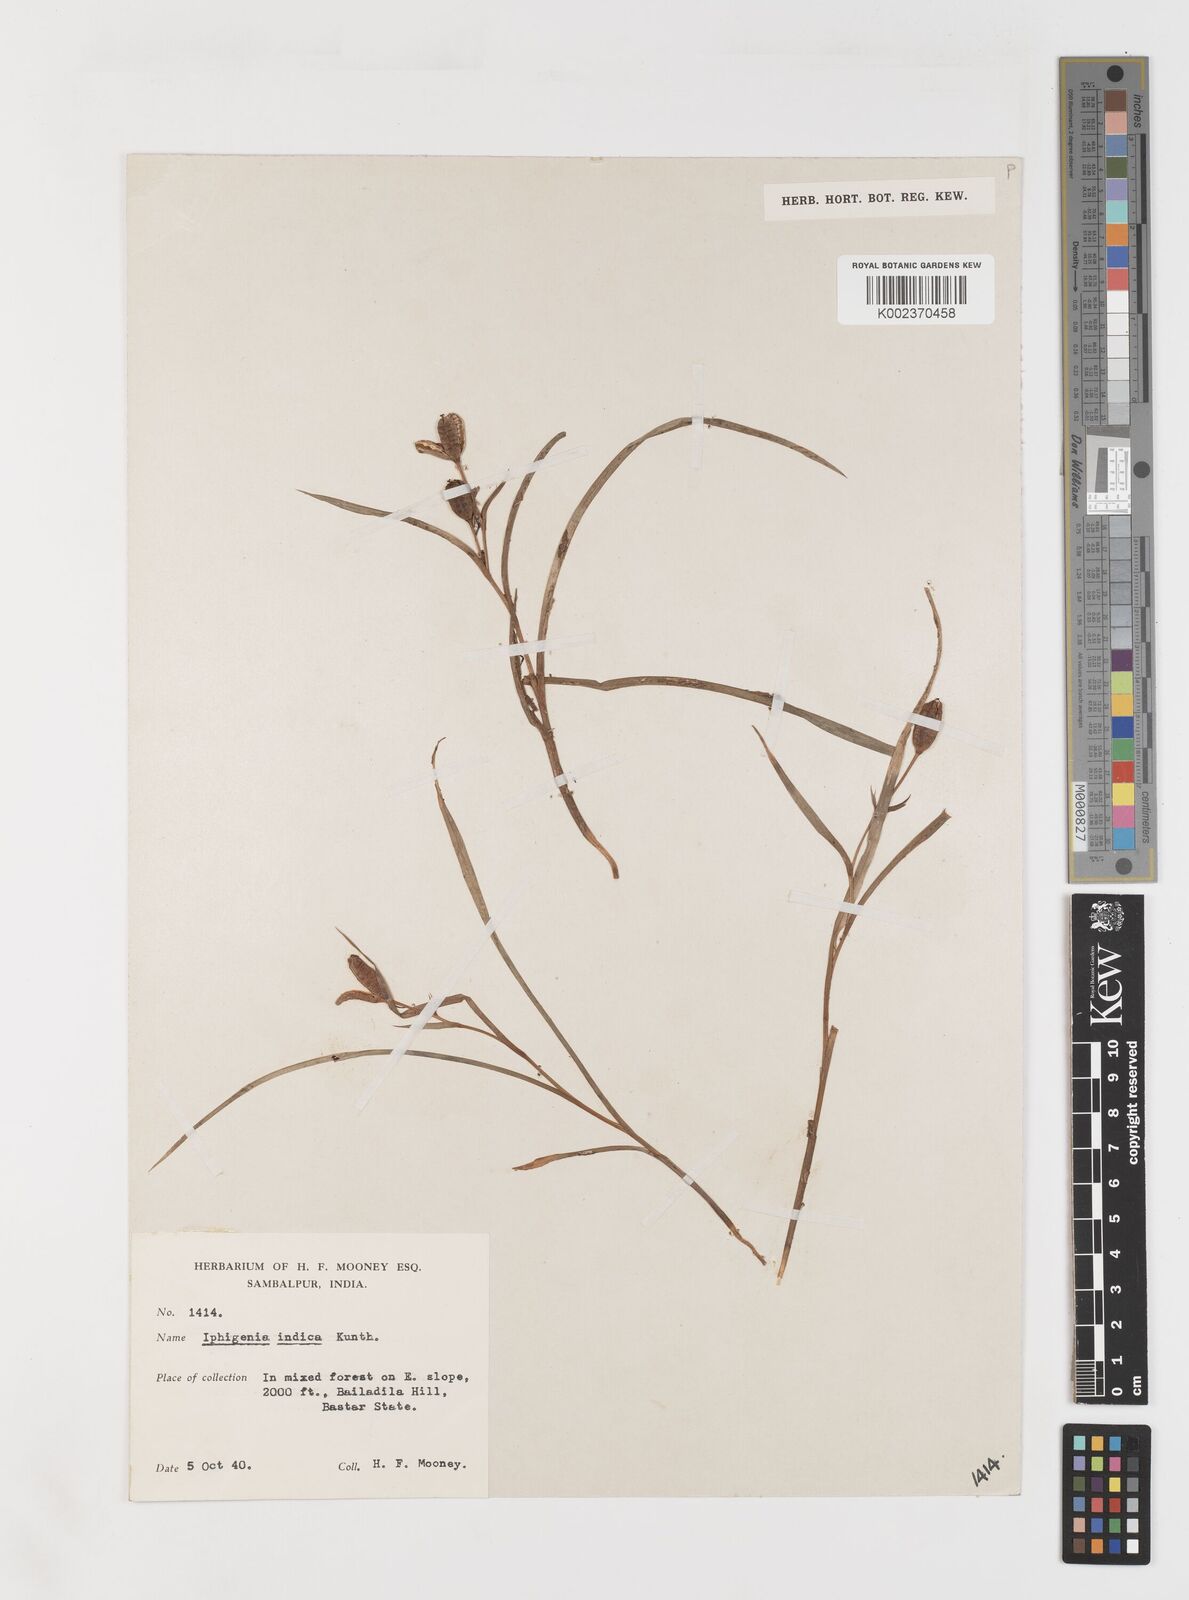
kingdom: Plantae
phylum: Tracheophyta
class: Liliopsida
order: Liliales
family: Colchicaceae
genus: Iphigenia
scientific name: Iphigenia indica
